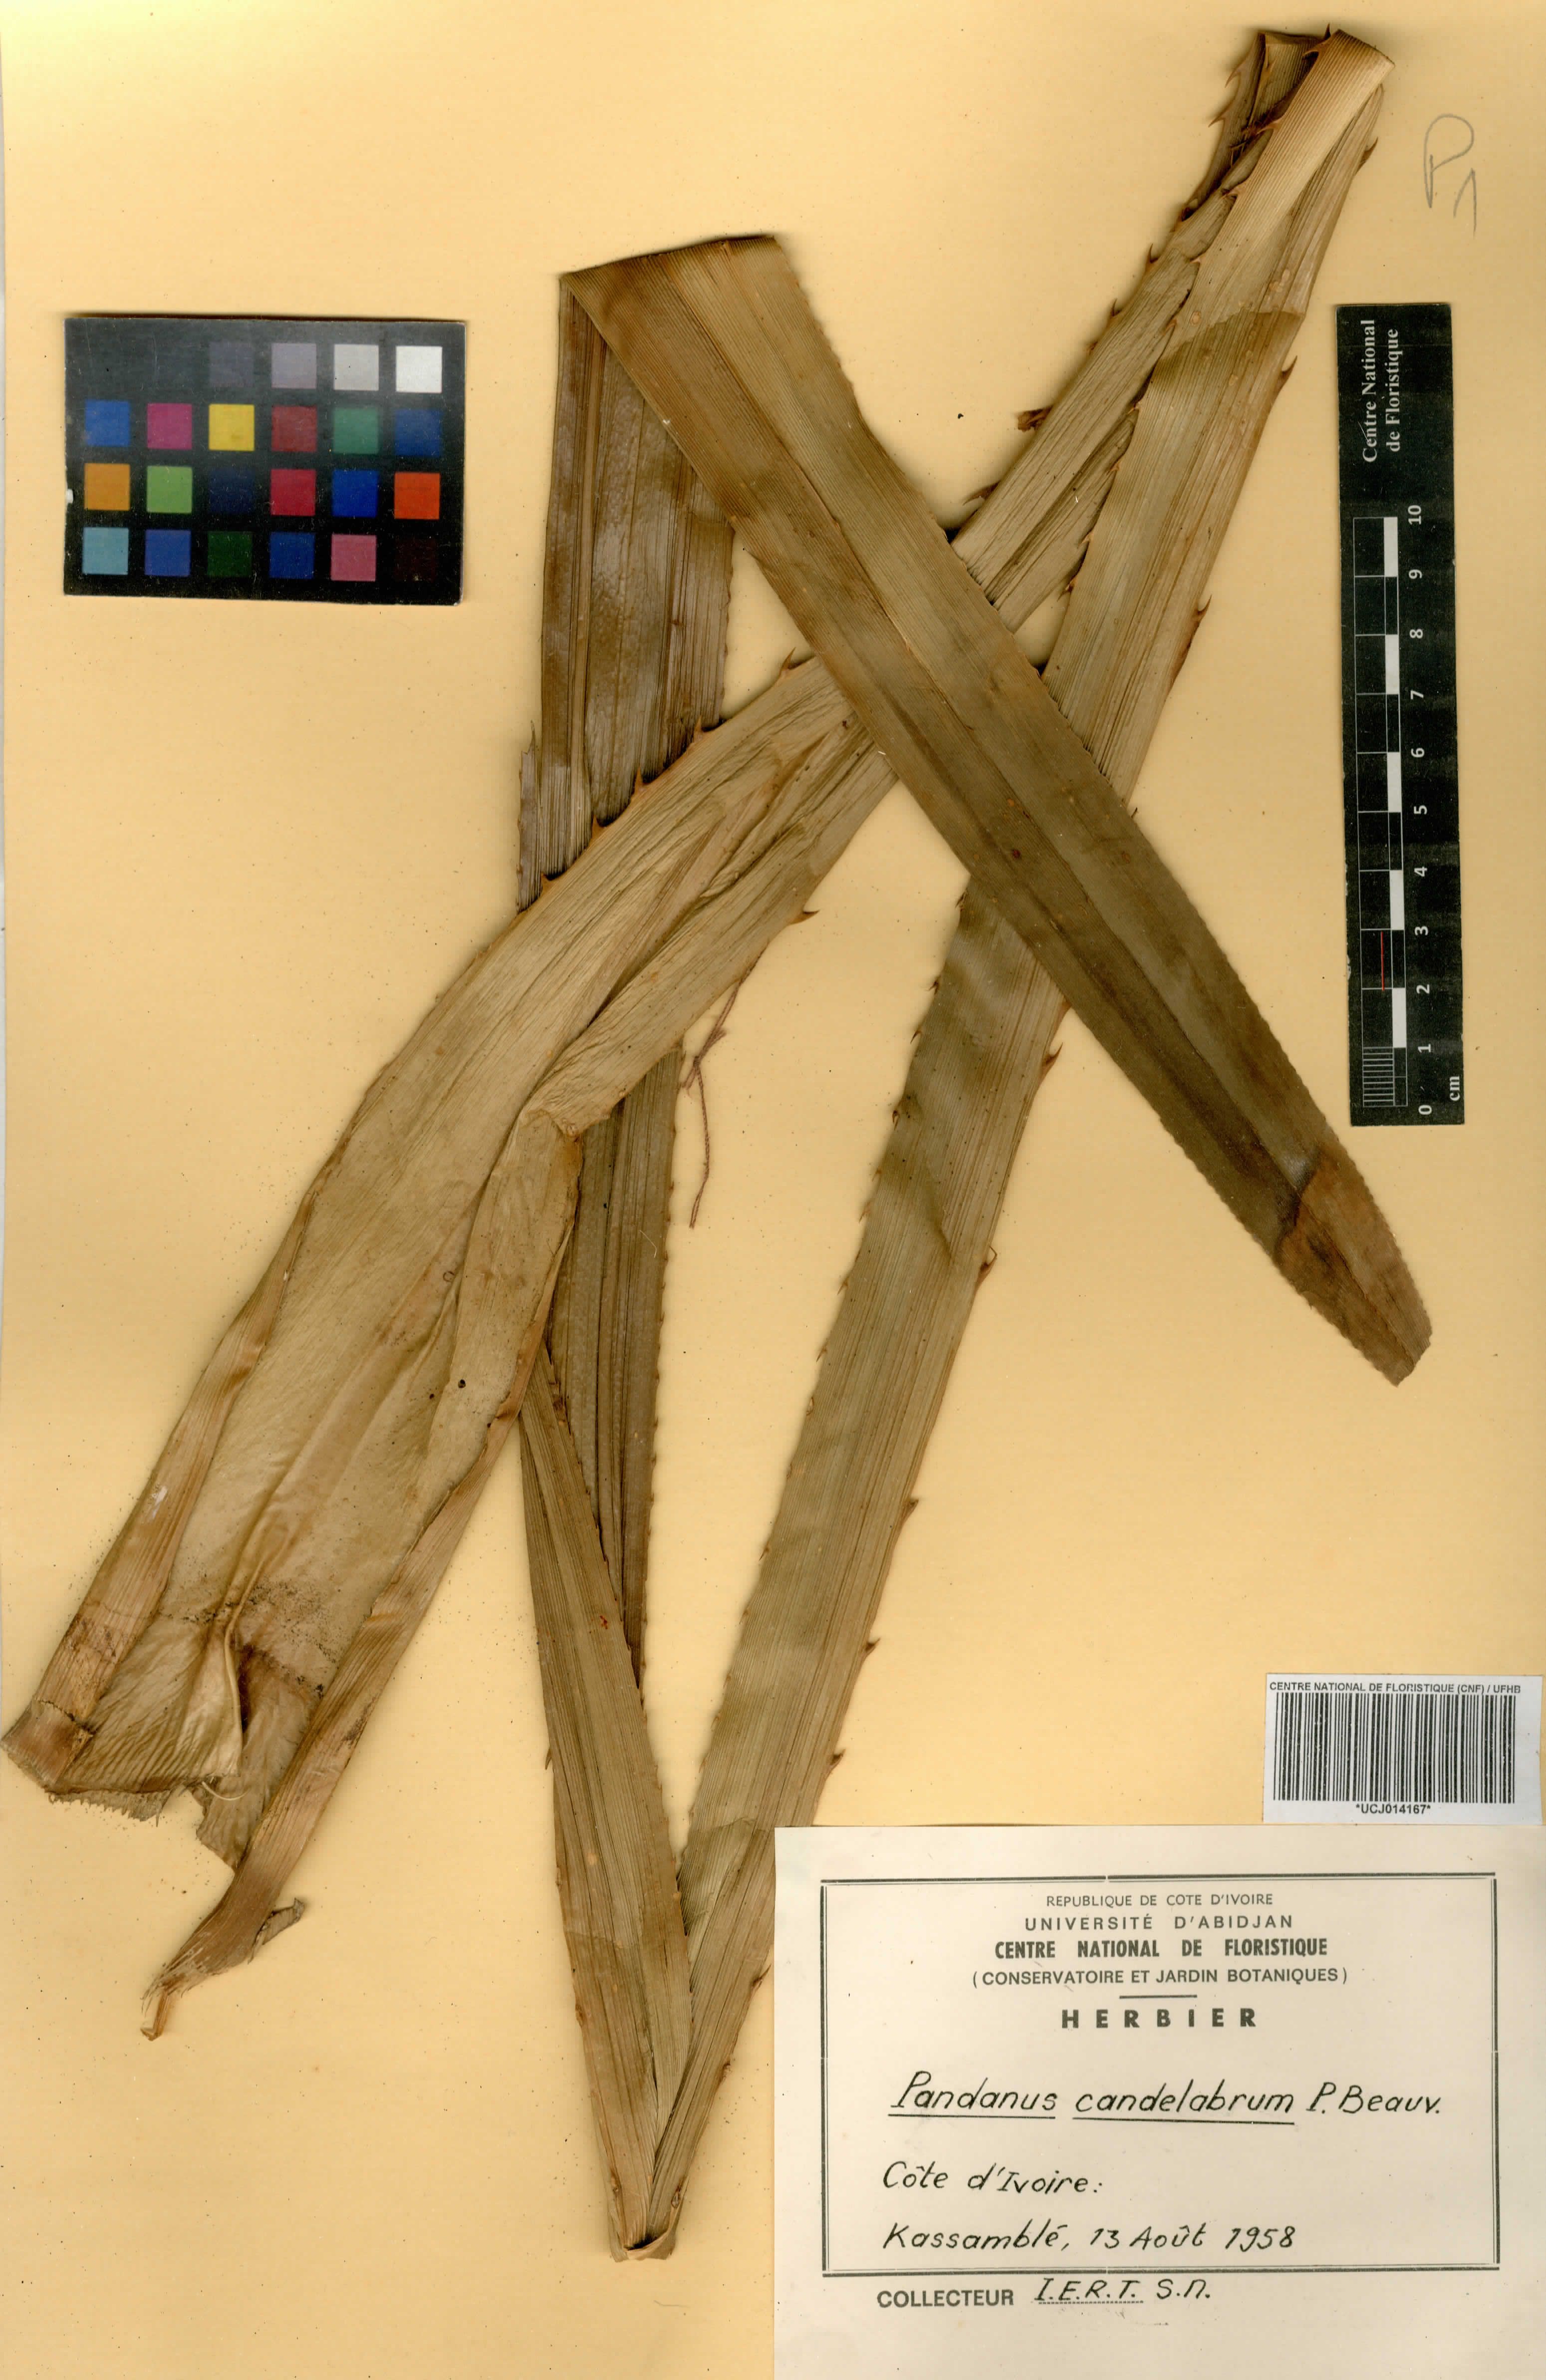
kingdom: Plantae
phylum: Tracheophyta
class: Liliopsida
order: Pandanales
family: Pandanaceae
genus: Pandanus
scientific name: Pandanus candelabrum
